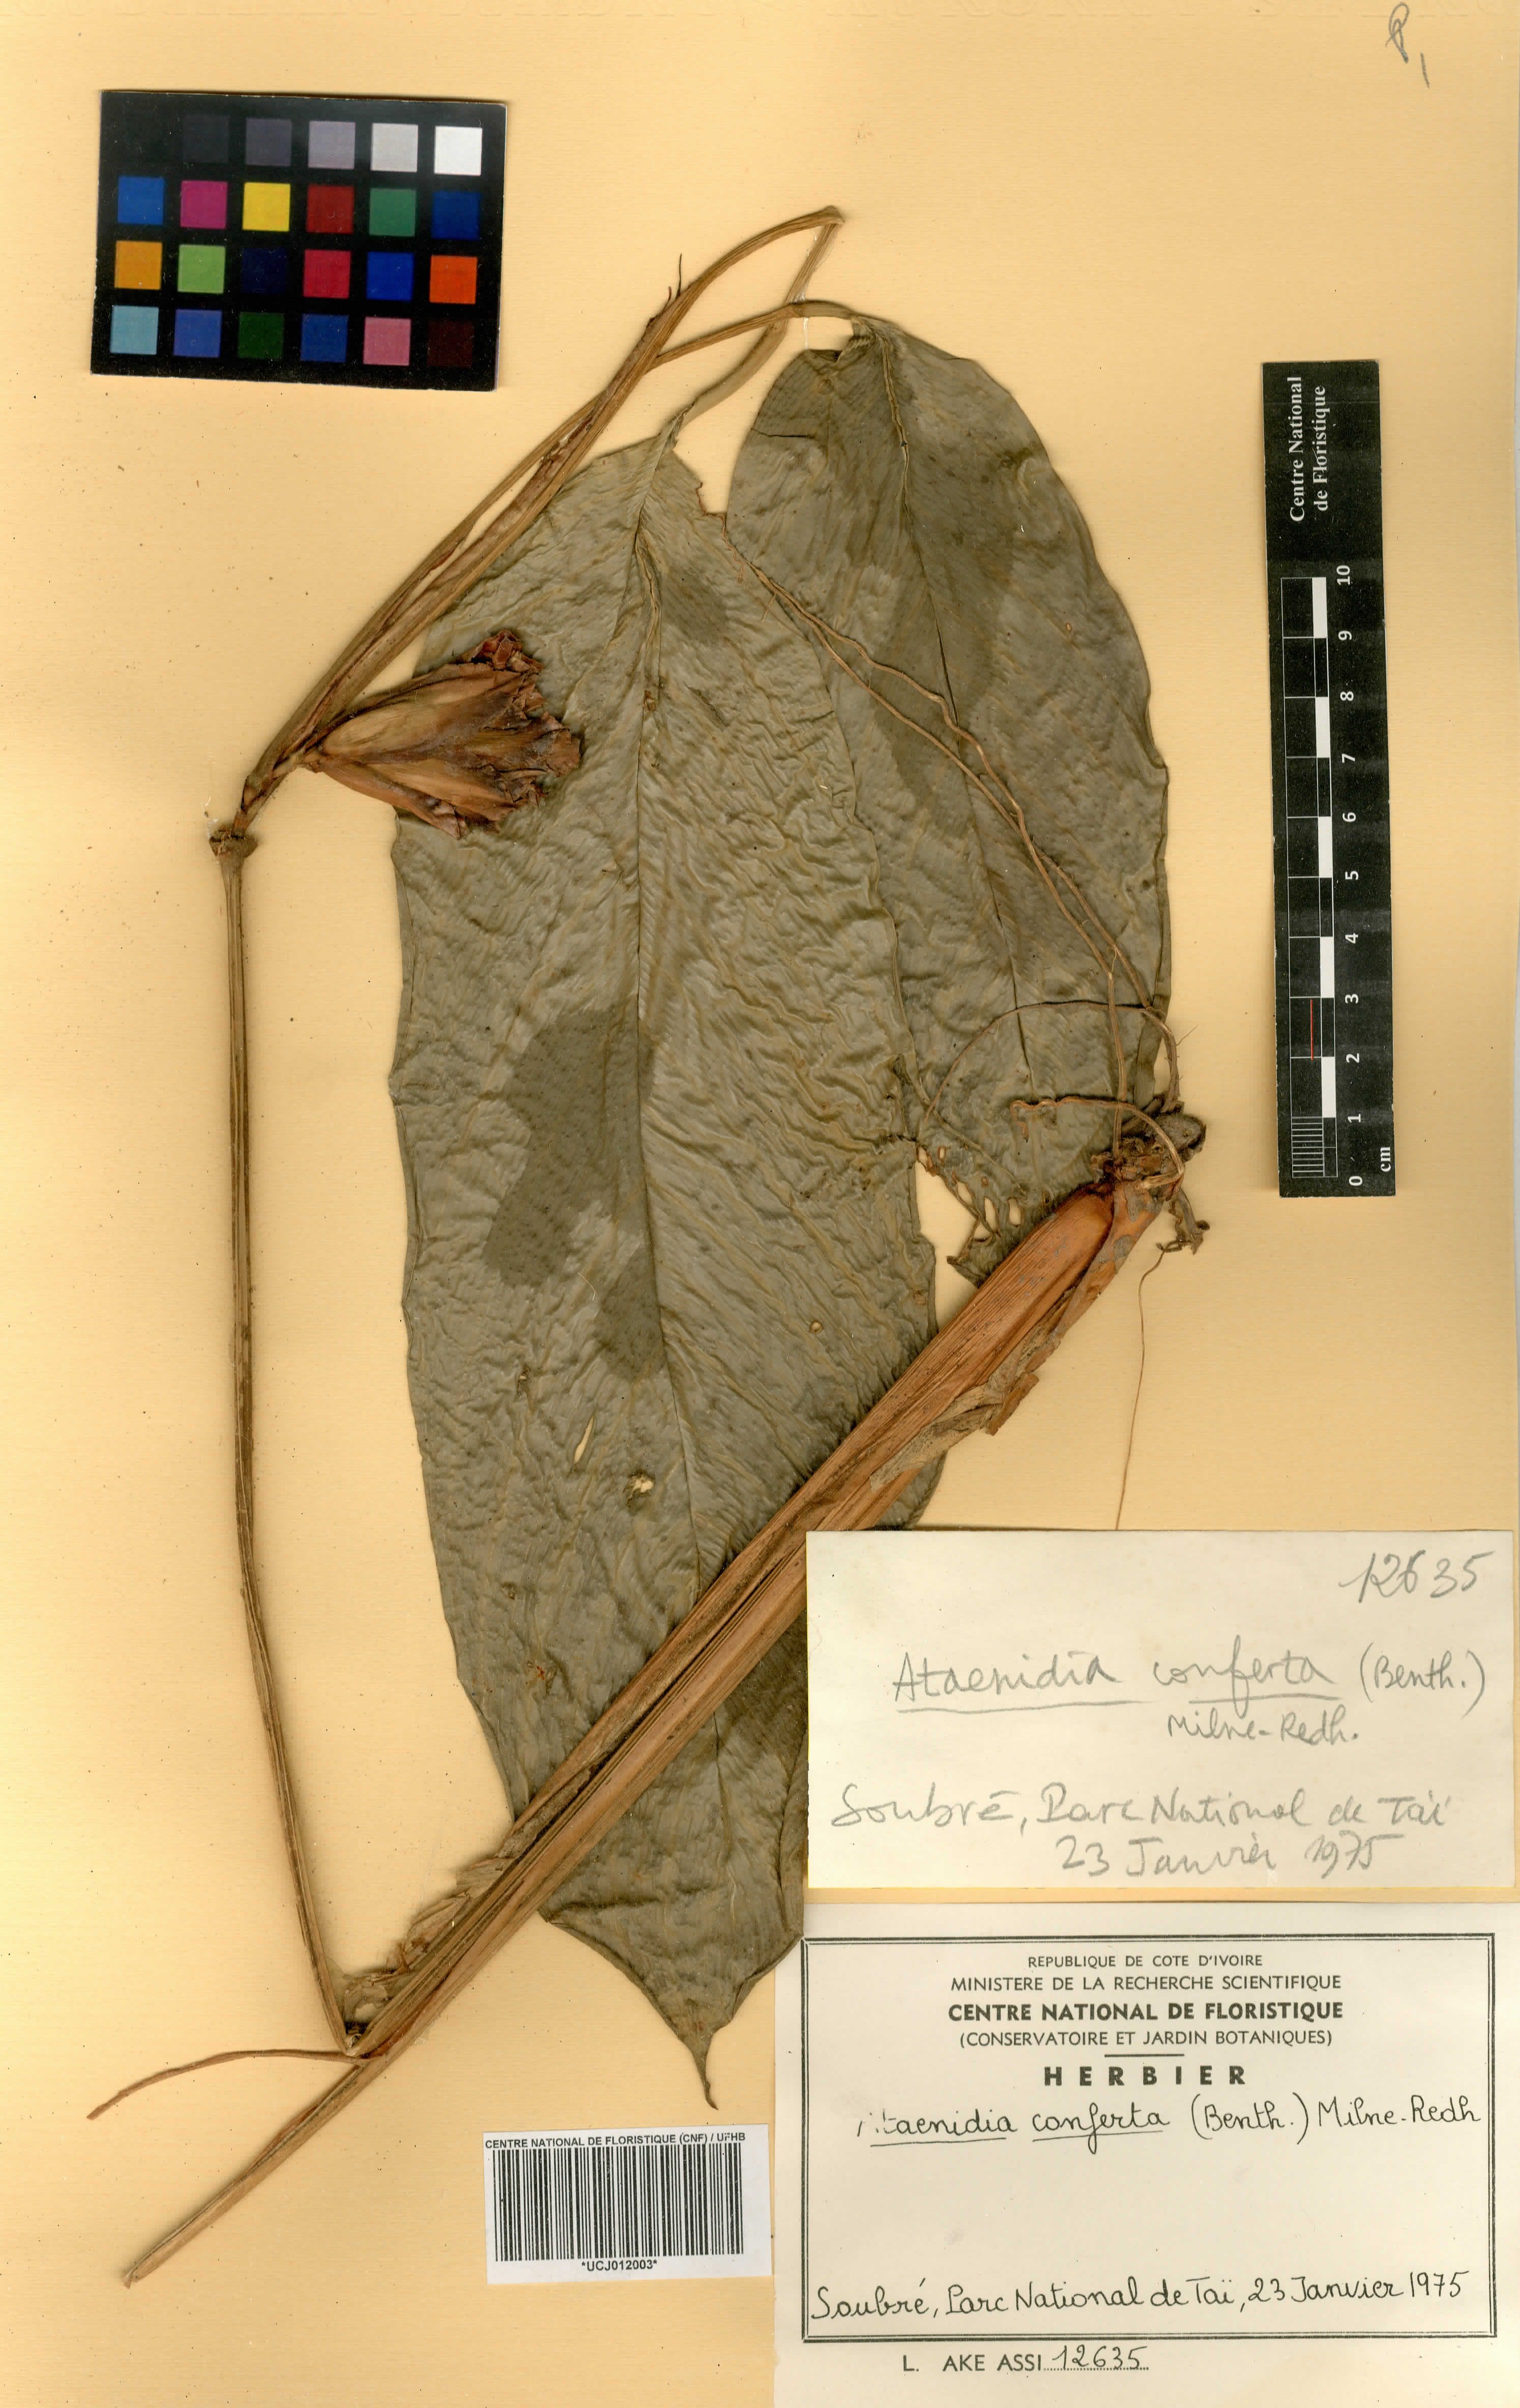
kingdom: Plantae
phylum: Tracheophyta
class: Liliopsida
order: Zingiberales
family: Marantaceae
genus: Marantochloa
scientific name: Marantochloa conferta
